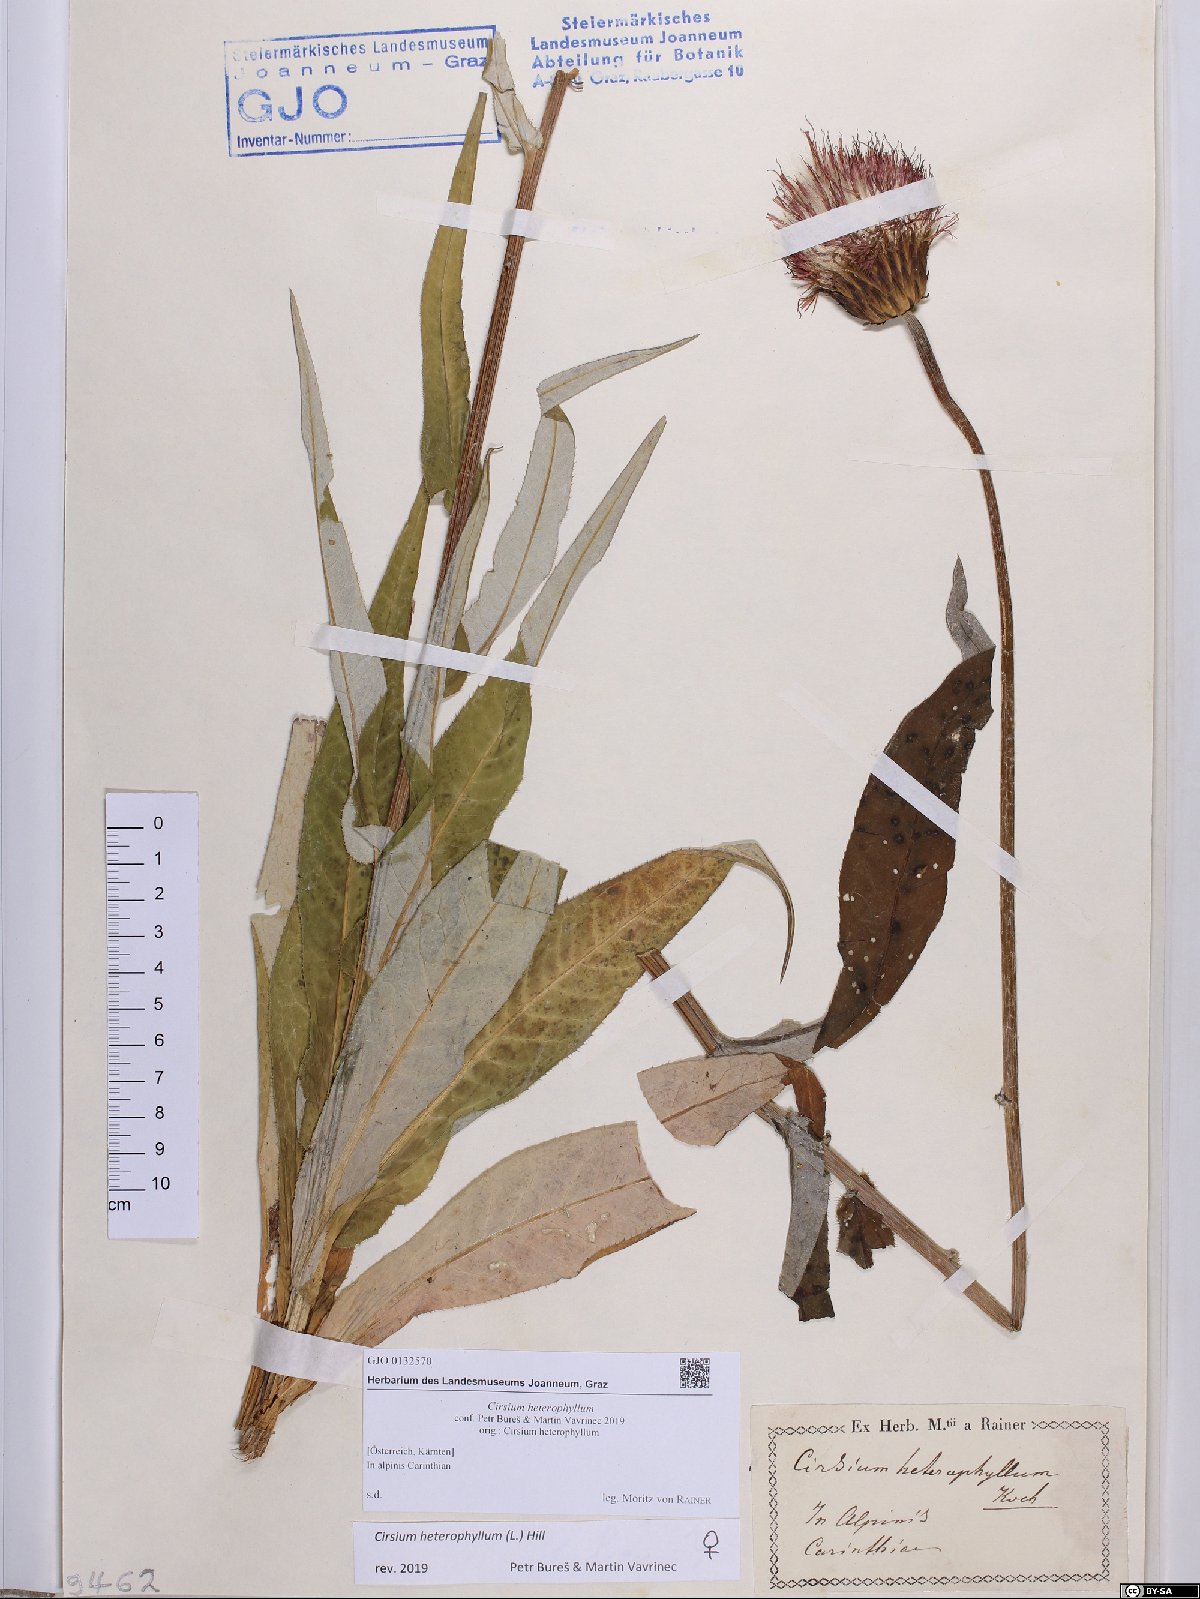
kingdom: Plantae
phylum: Tracheophyta
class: Magnoliopsida
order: Asterales
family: Asteraceae
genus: Cirsium
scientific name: Cirsium heterophyllum
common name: Melancholy thistle
